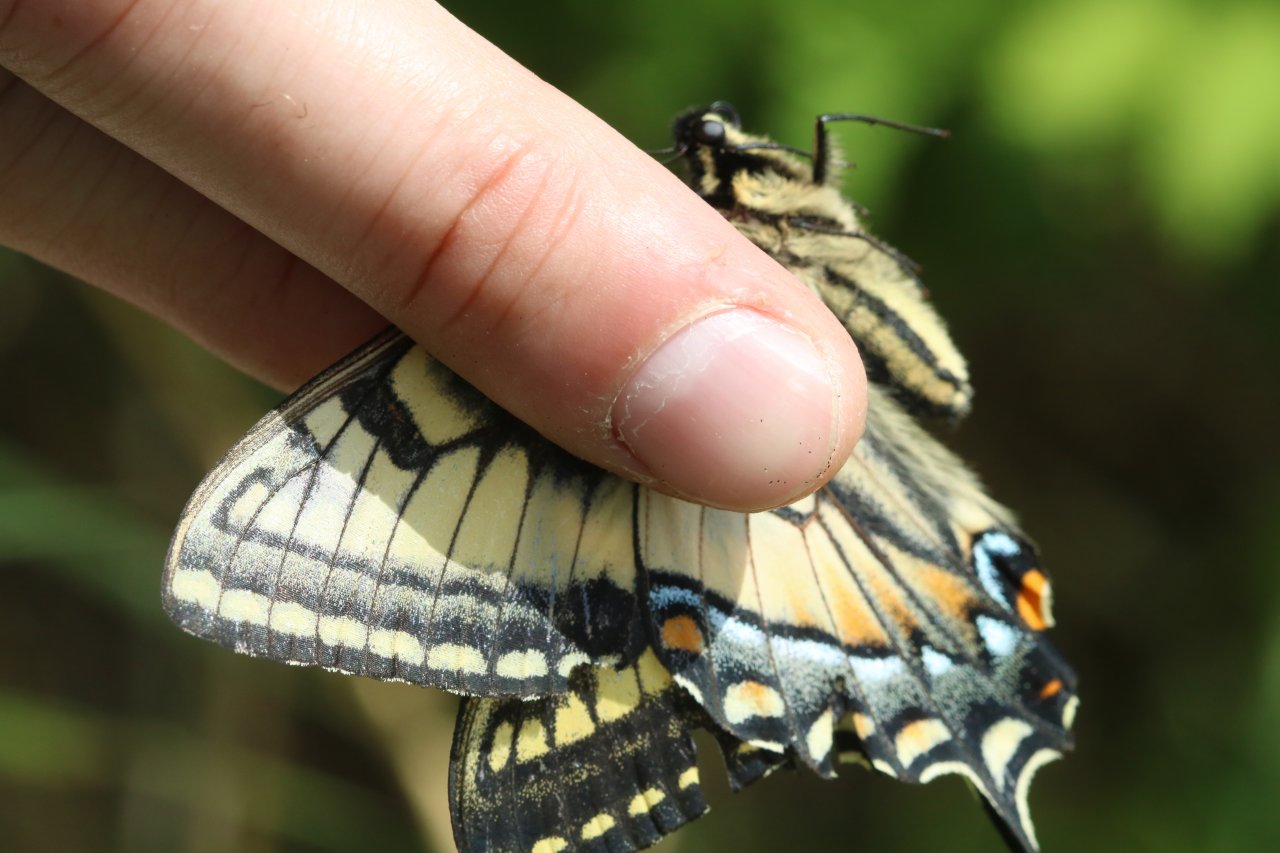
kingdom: Animalia
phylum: Arthropoda
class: Insecta
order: Lepidoptera
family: Papilionidae
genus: Pterourus
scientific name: Pterourus canadensis
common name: Canadian Tiger Swallowtail
